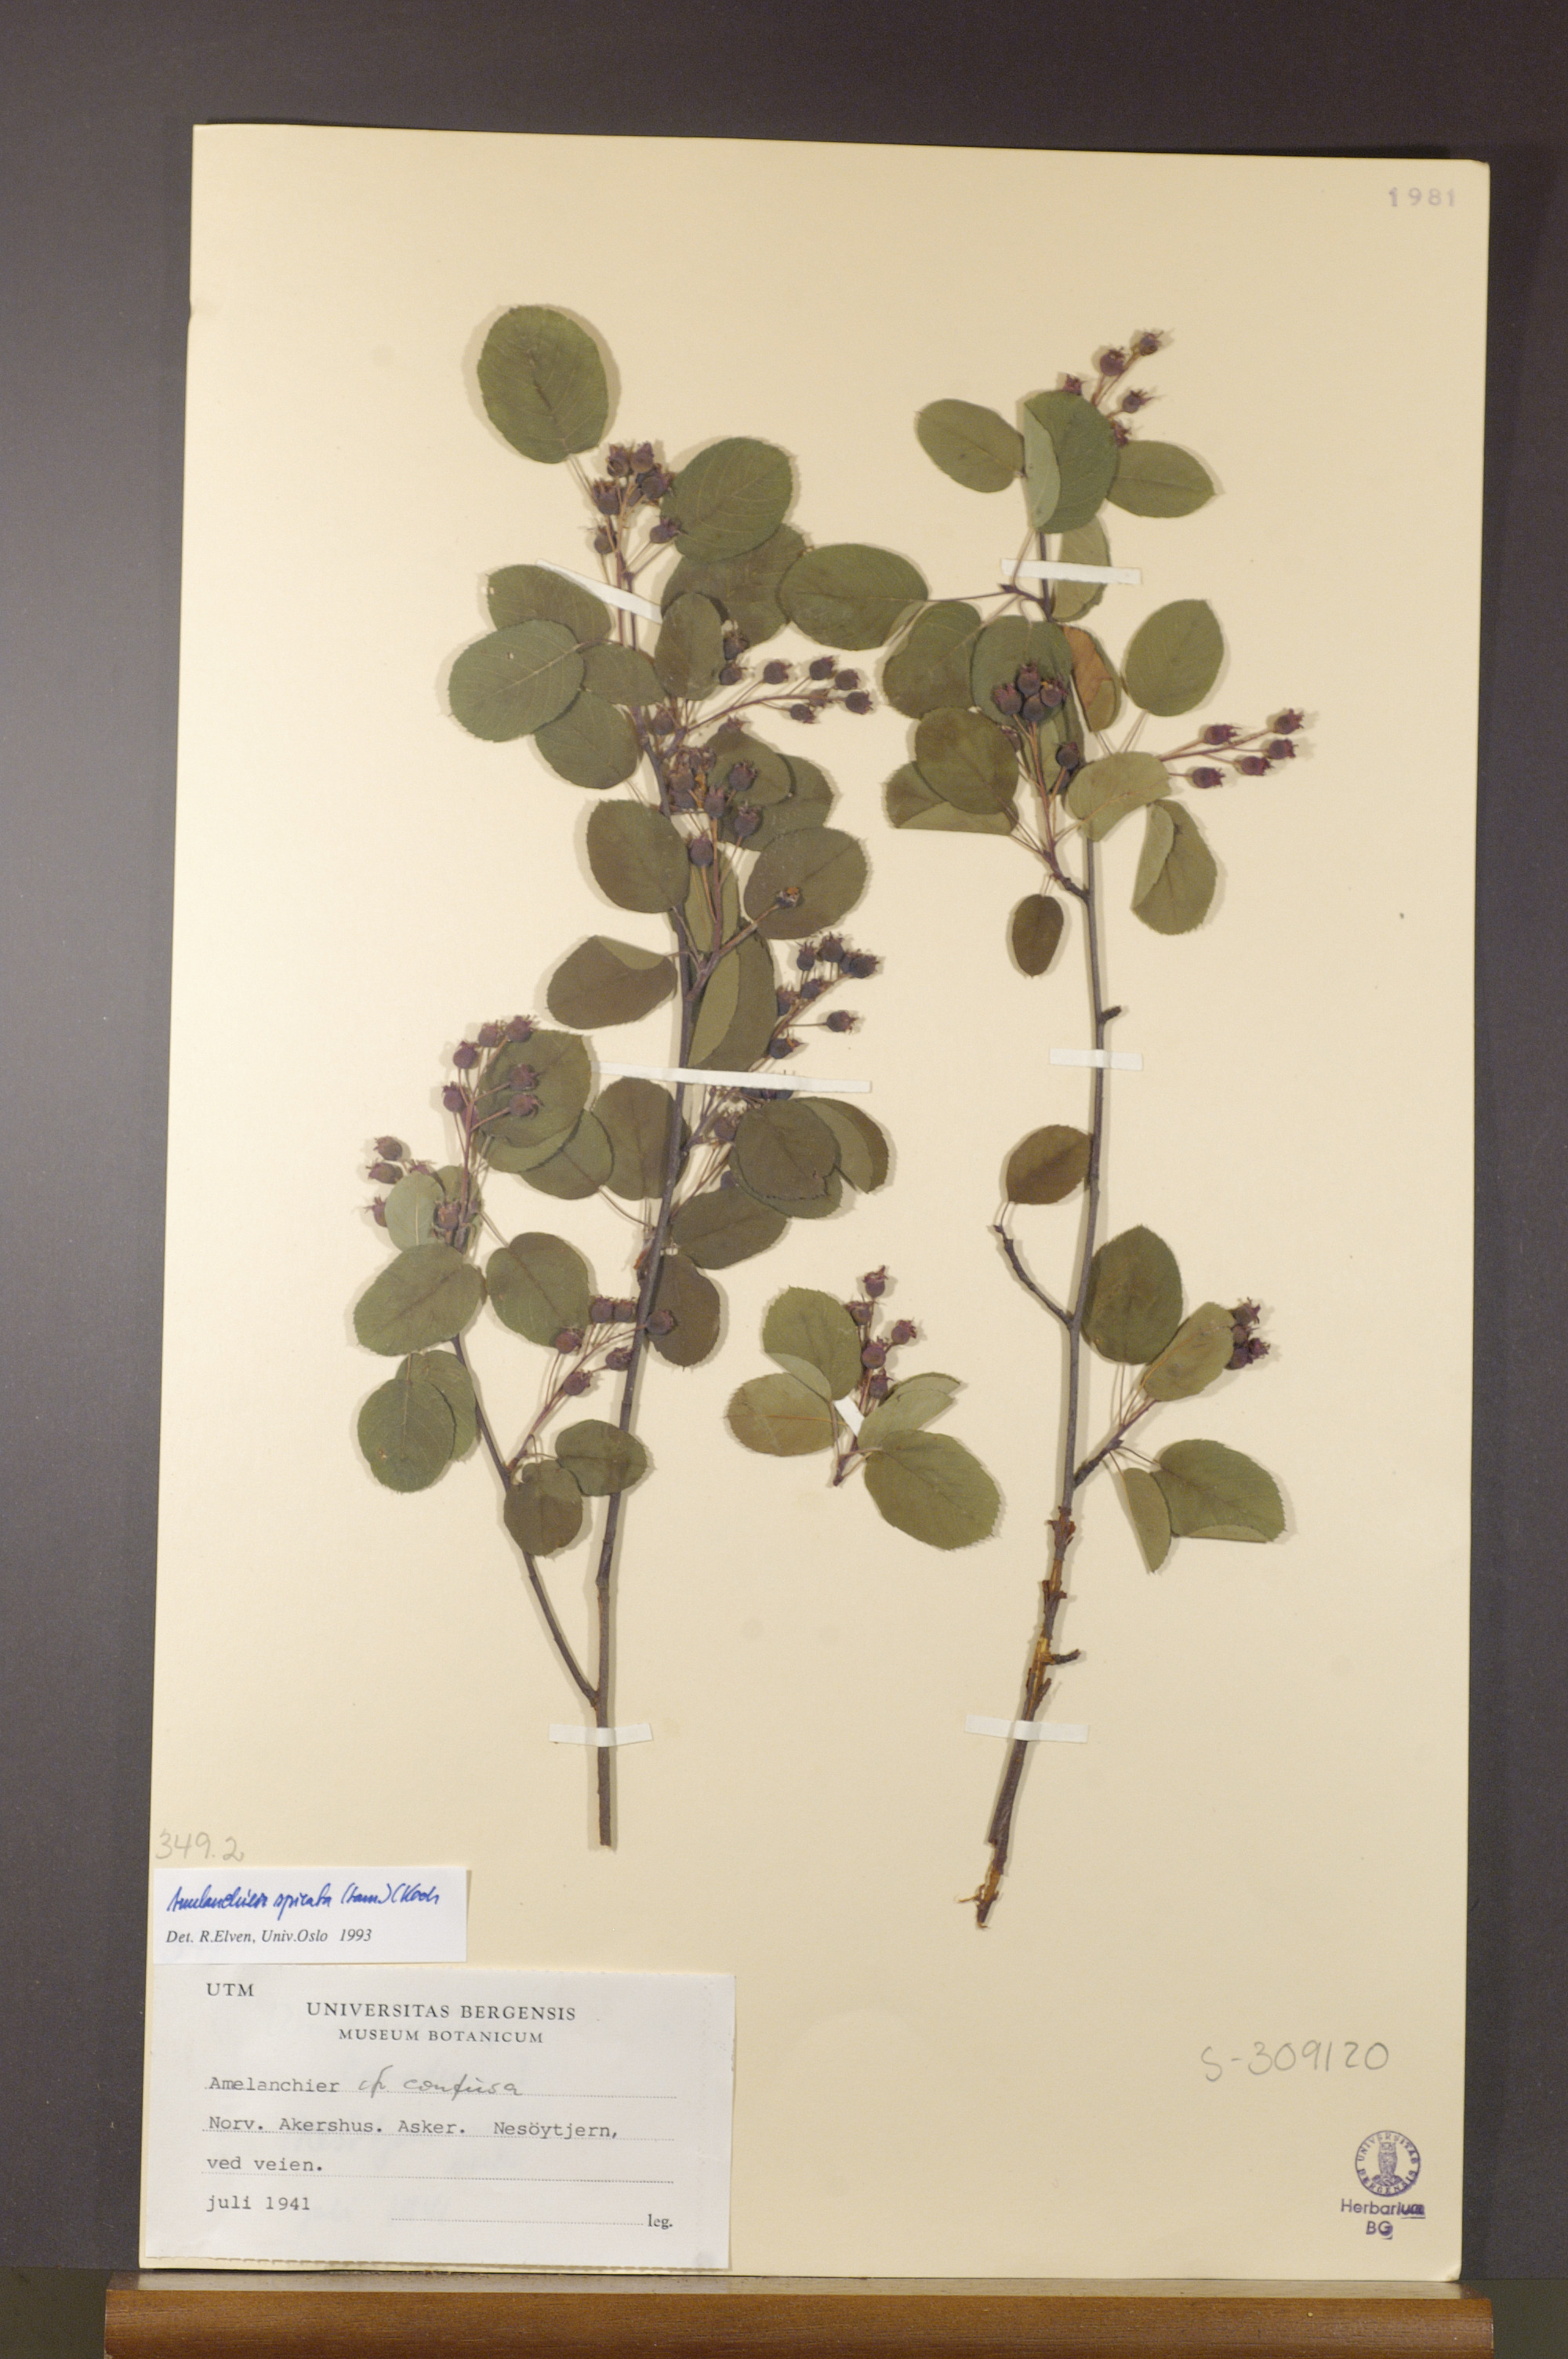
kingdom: Plantae
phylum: Tracheophyta
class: Magnoliopsida
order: Rosales
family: Rosaceae
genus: Amelanchier
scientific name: Amelanchier humilis
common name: Low juneberry
